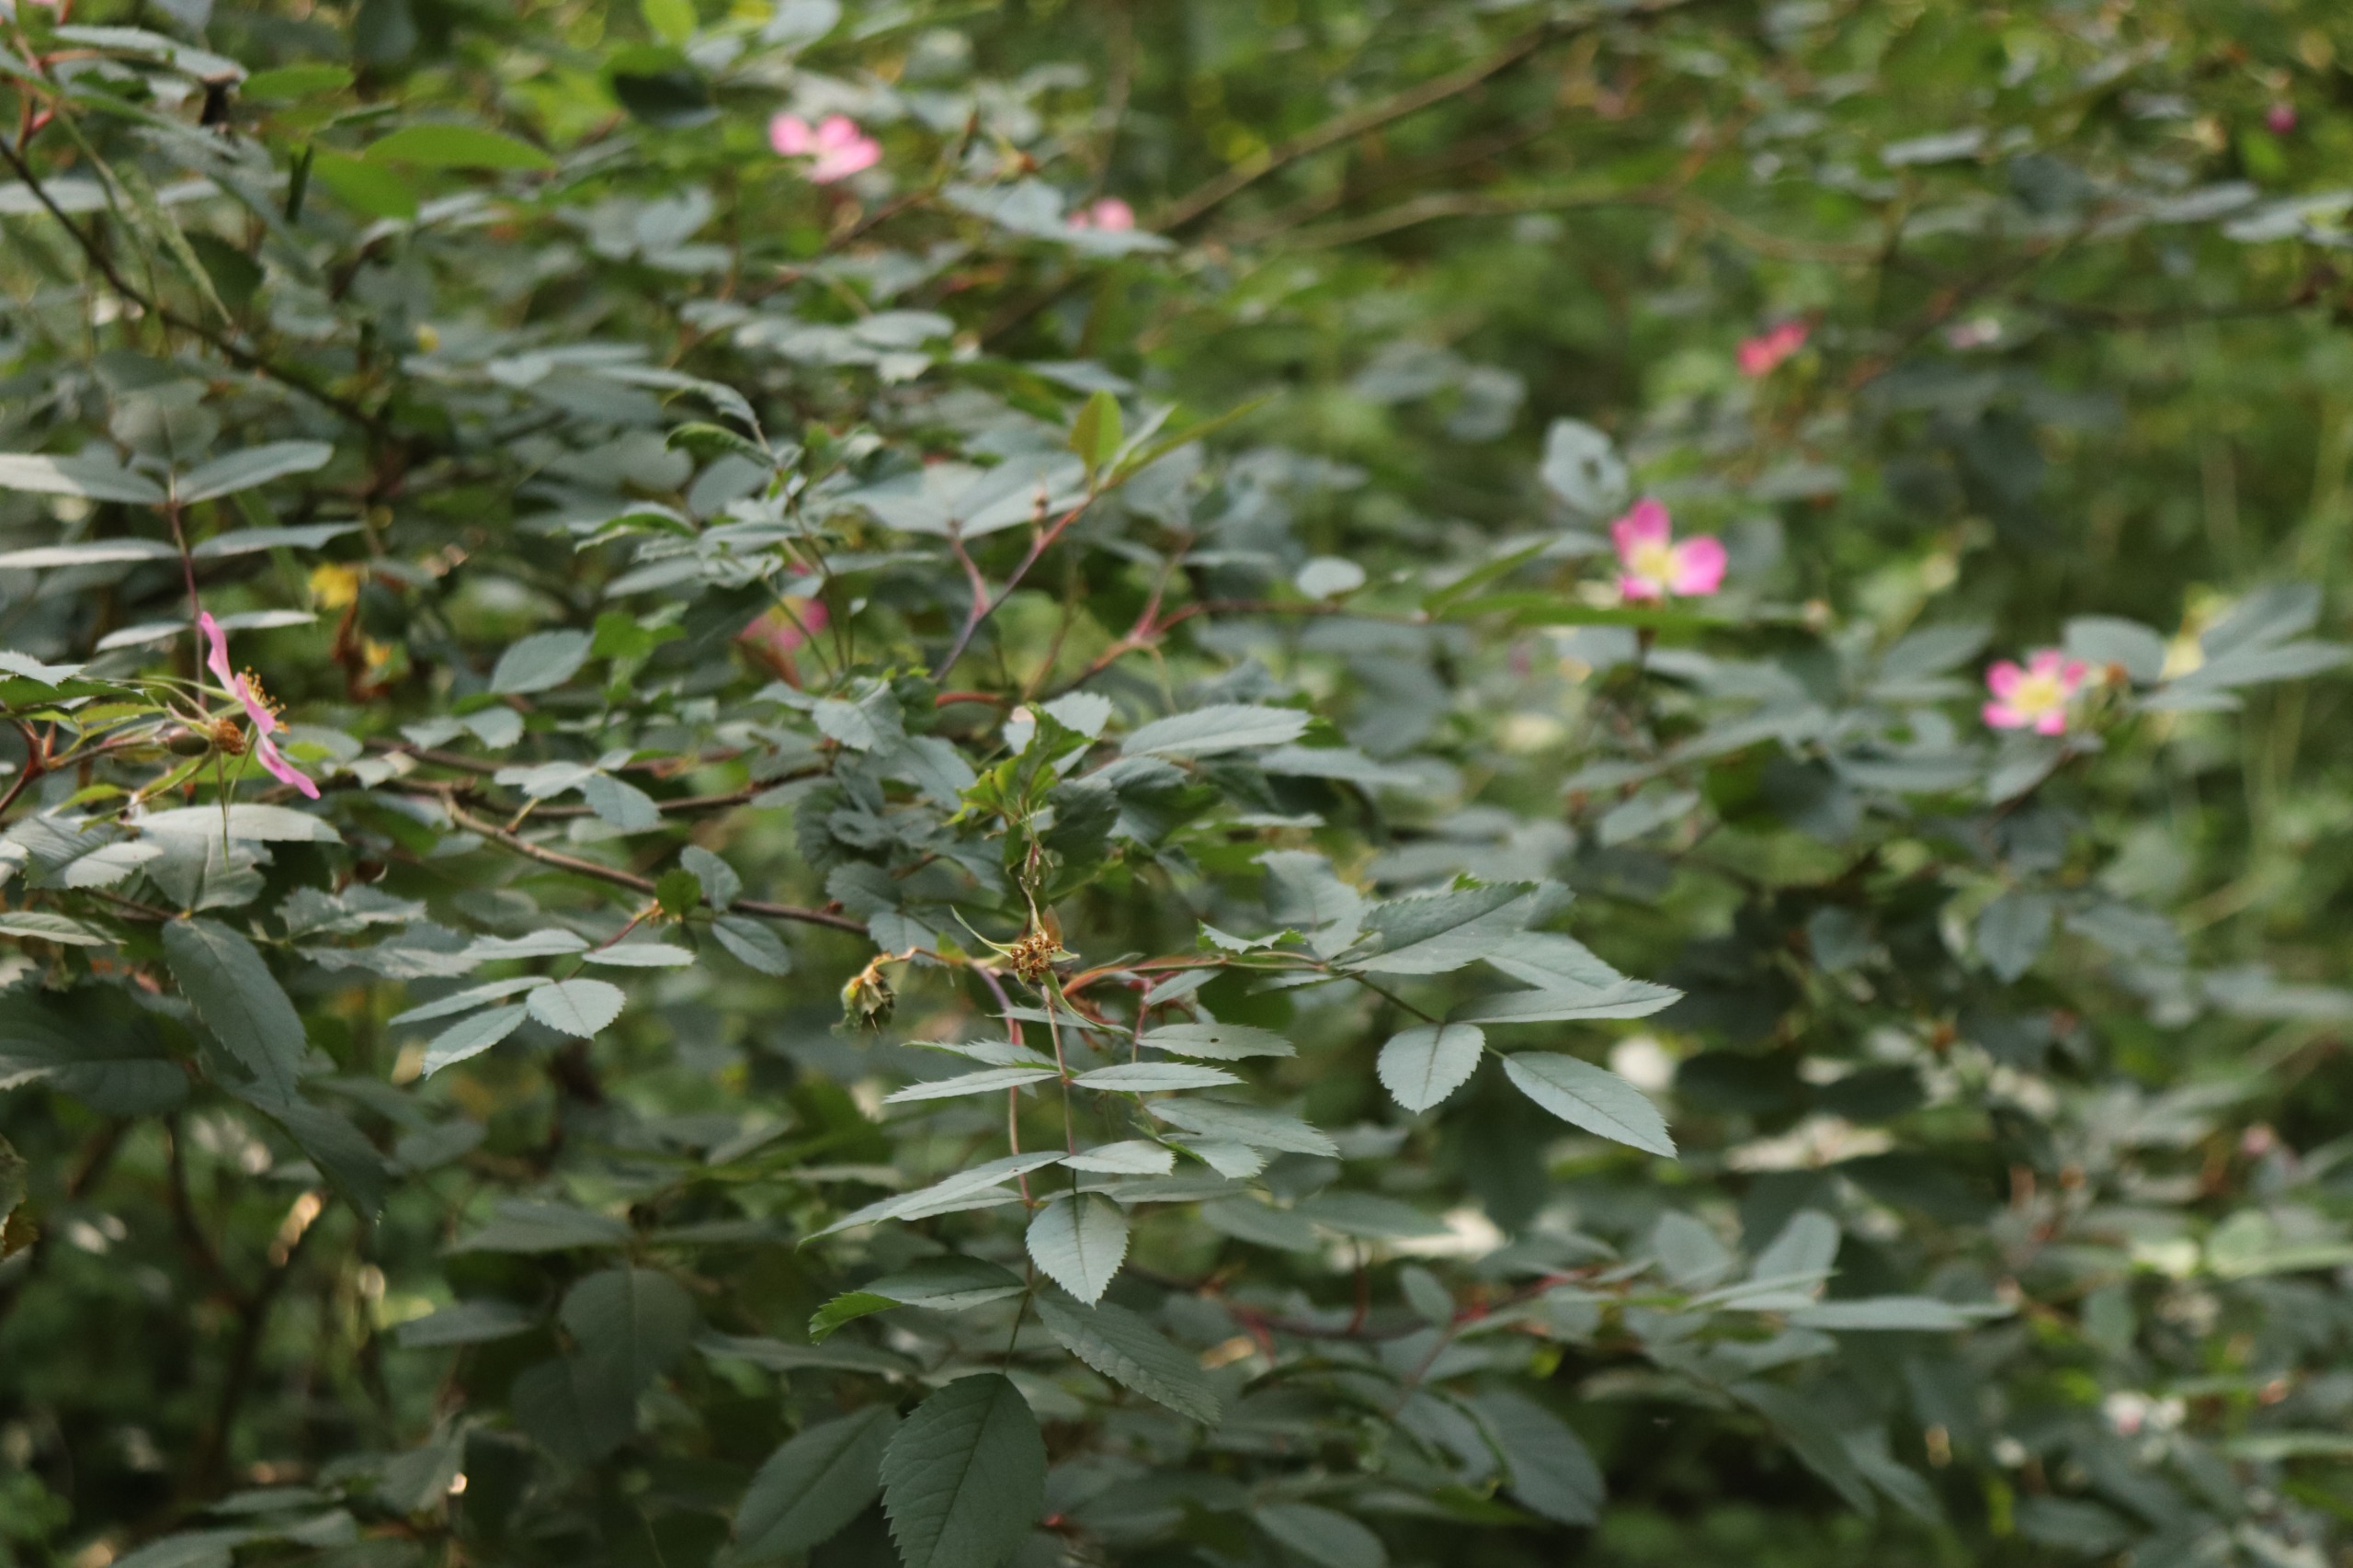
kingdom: Plantae
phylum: Tracheophyta
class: Magnoliopsida
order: Rosales
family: Rosaceae
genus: Rosa
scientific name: Rosa glauca
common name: Kobber-rose
